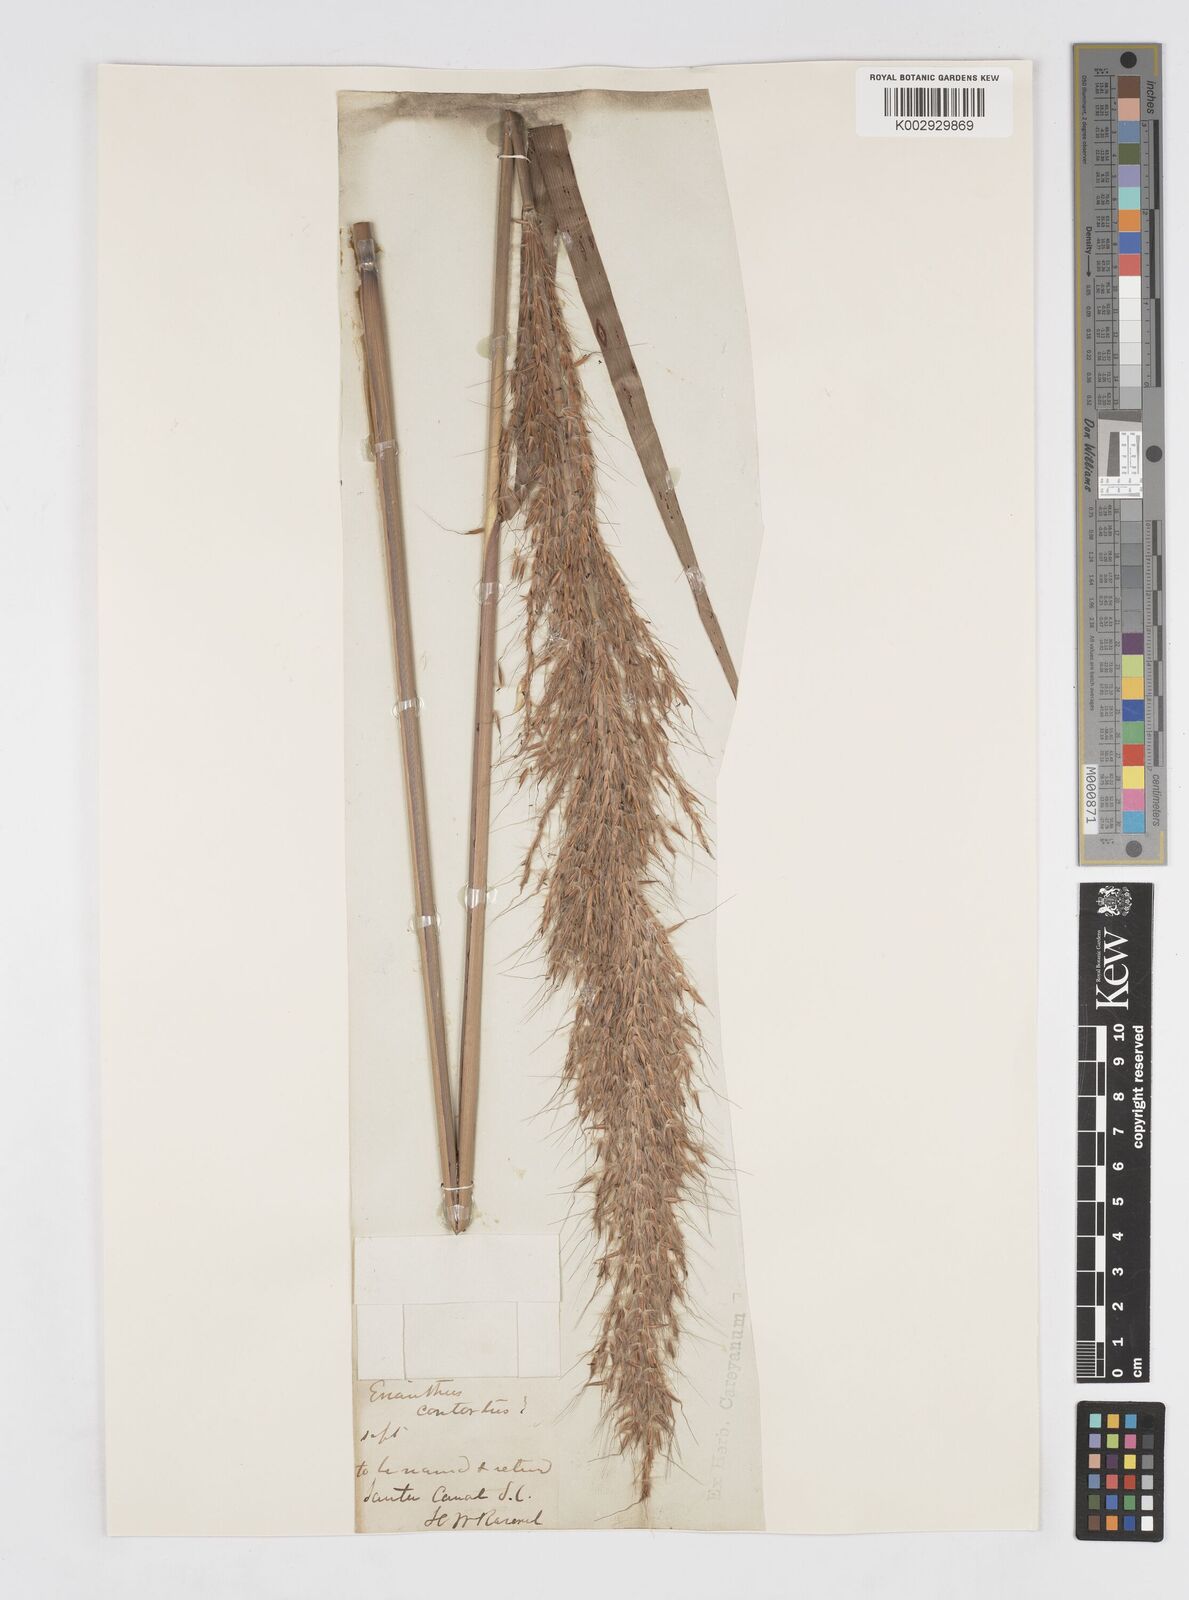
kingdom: Plantae
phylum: Tracheophyta
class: Liliopsida
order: Poales
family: Poaceae
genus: Erianthus
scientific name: Erianthus contortus
